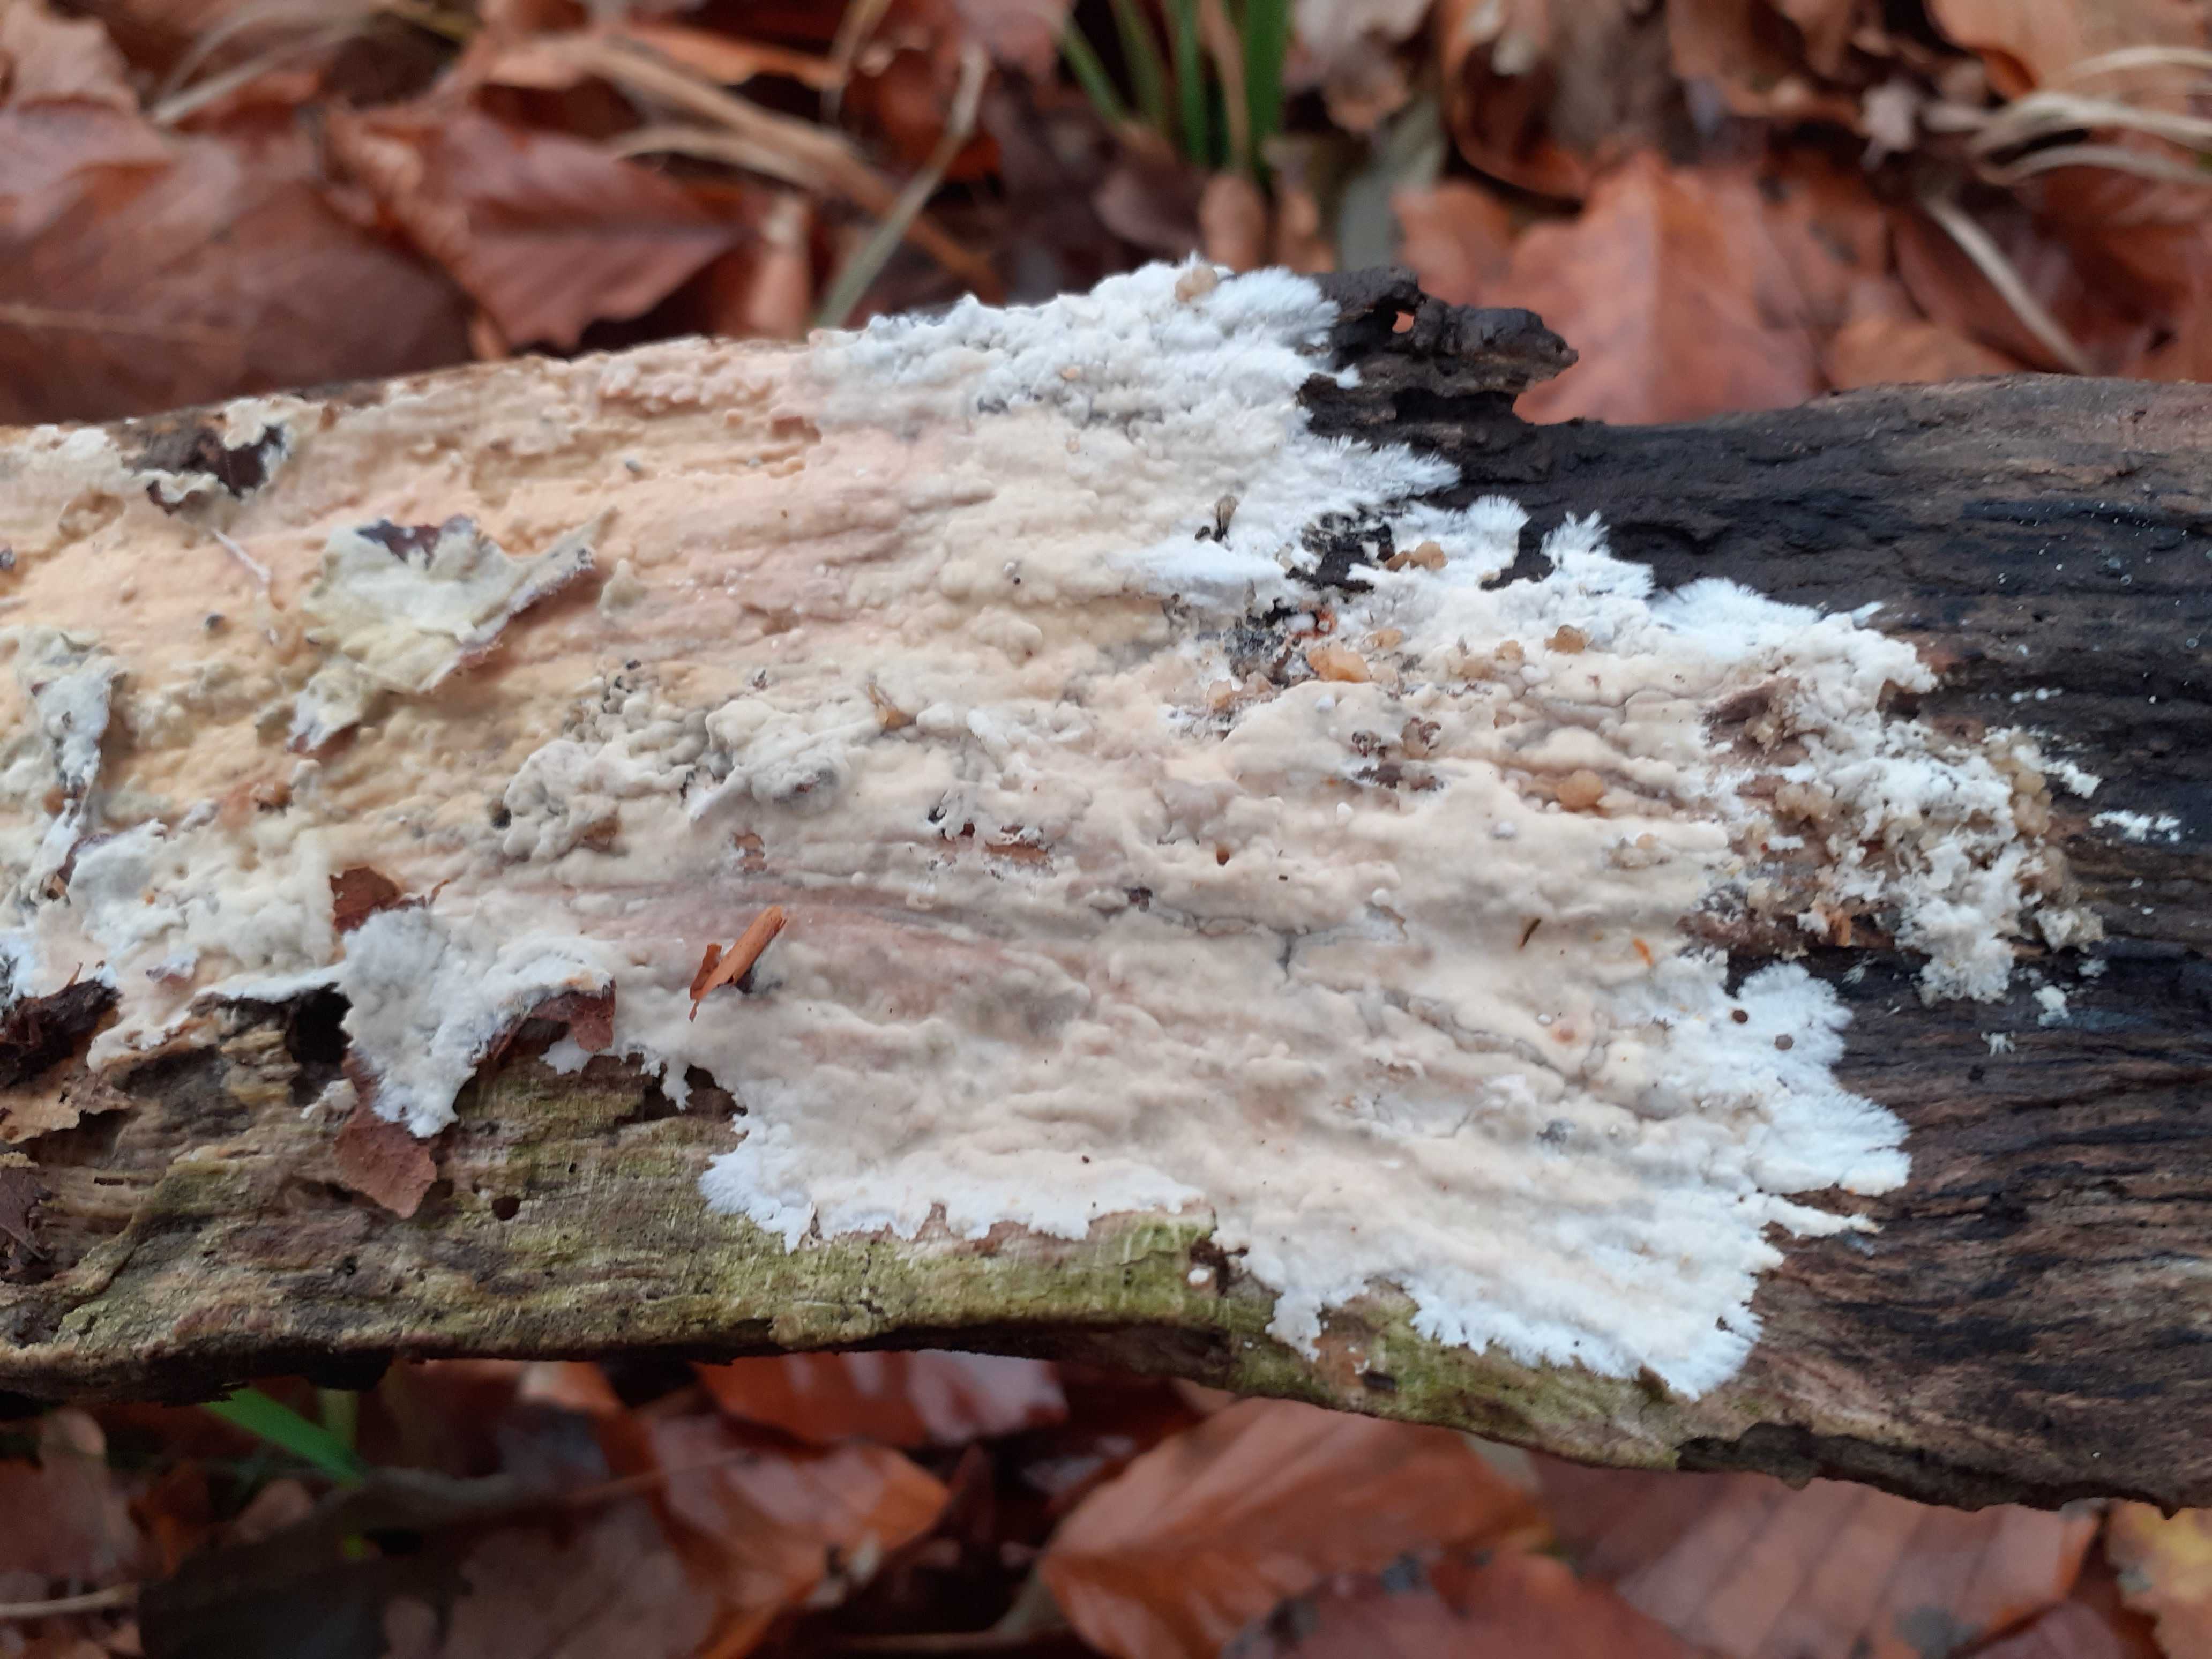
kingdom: Fungi
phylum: Basidiomycota
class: Agaricomycetes
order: Polyporales
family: Phanerochaetaceae
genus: Phanerochaete
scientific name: Phanerochaete sordida
